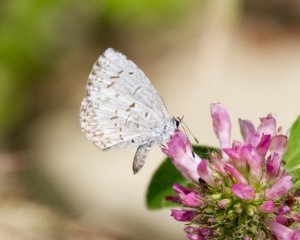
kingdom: Animalia
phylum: Arthropoda
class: Insecta
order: Lepidoptera
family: Lycaenidae
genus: Celastrina
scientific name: Celastrina
